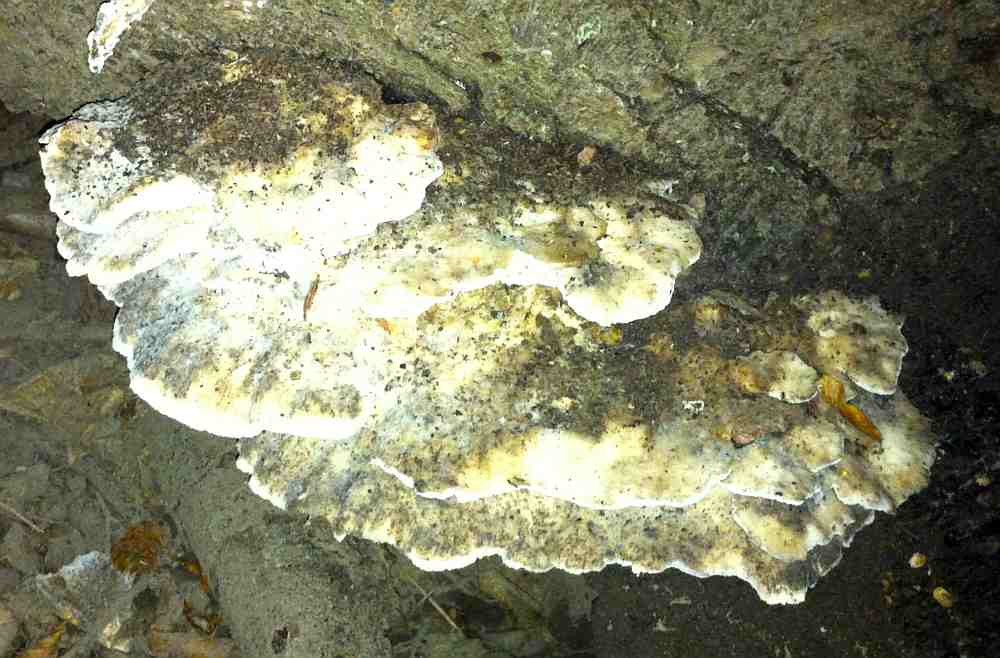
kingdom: Fungi
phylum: Basidiomycota
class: Agaricomycetes
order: Polyporales
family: Fomitopsidaceae
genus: Climacocystis
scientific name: Climacocystis borealis
